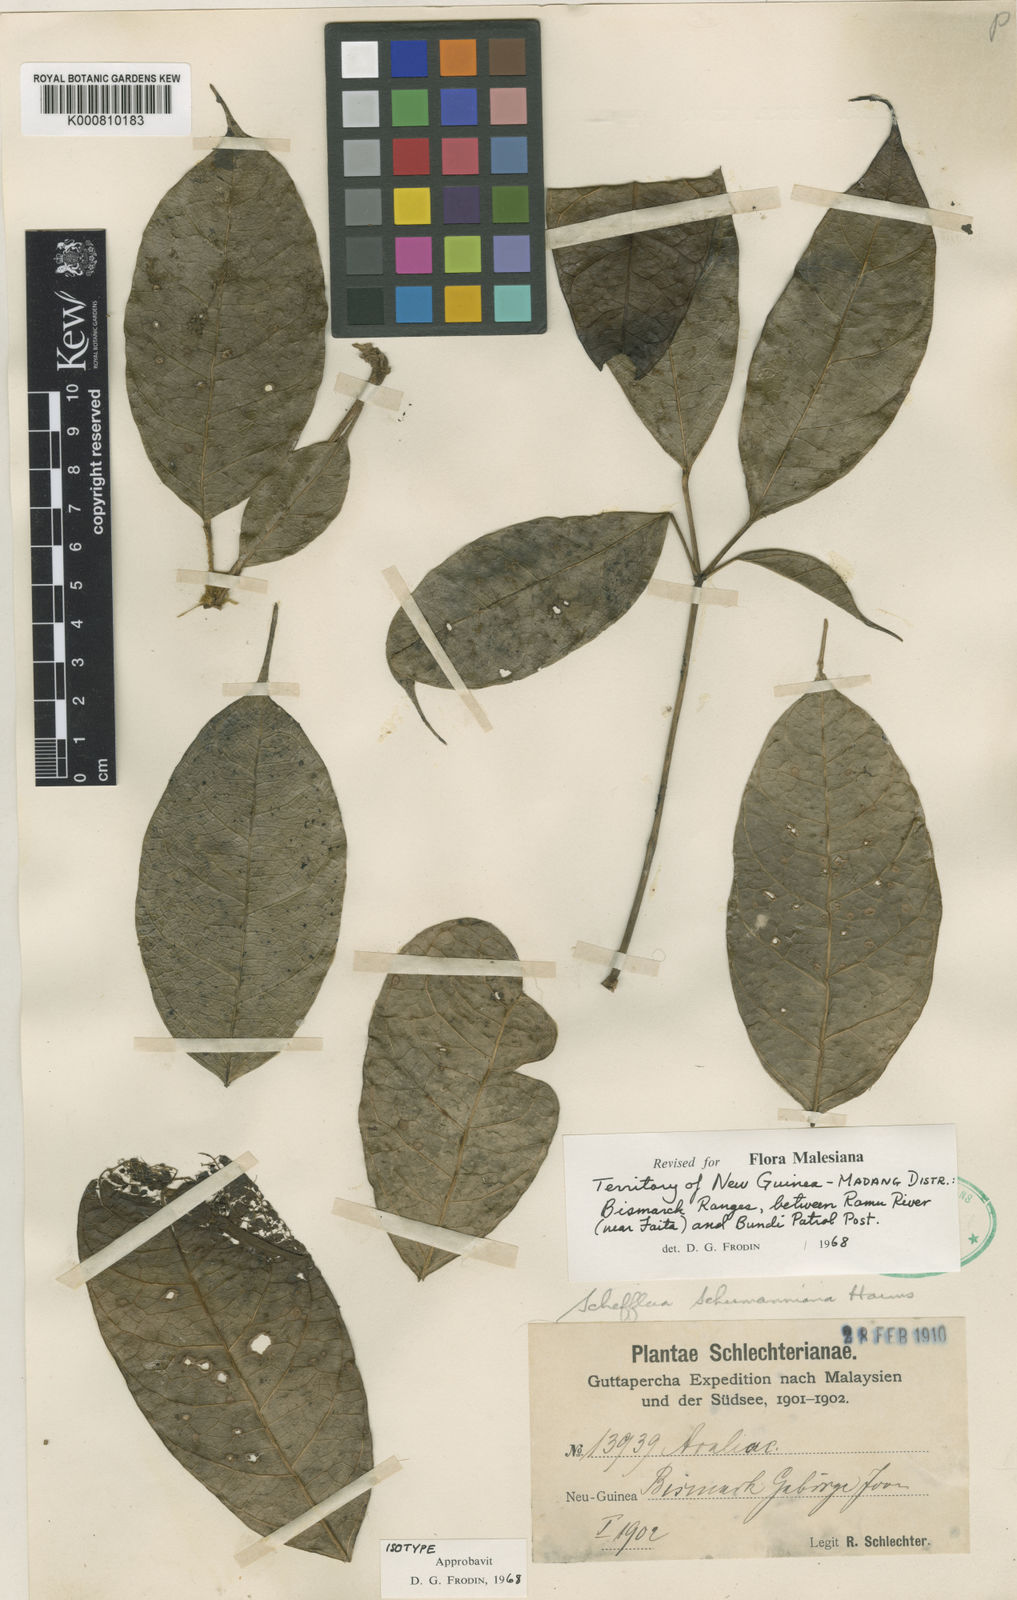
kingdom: Plantae
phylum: Tracheophyta
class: Magnoliopsida
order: Apiales
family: Araliaceae
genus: Heptapleurum
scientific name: Heptapleurum schumannianum
